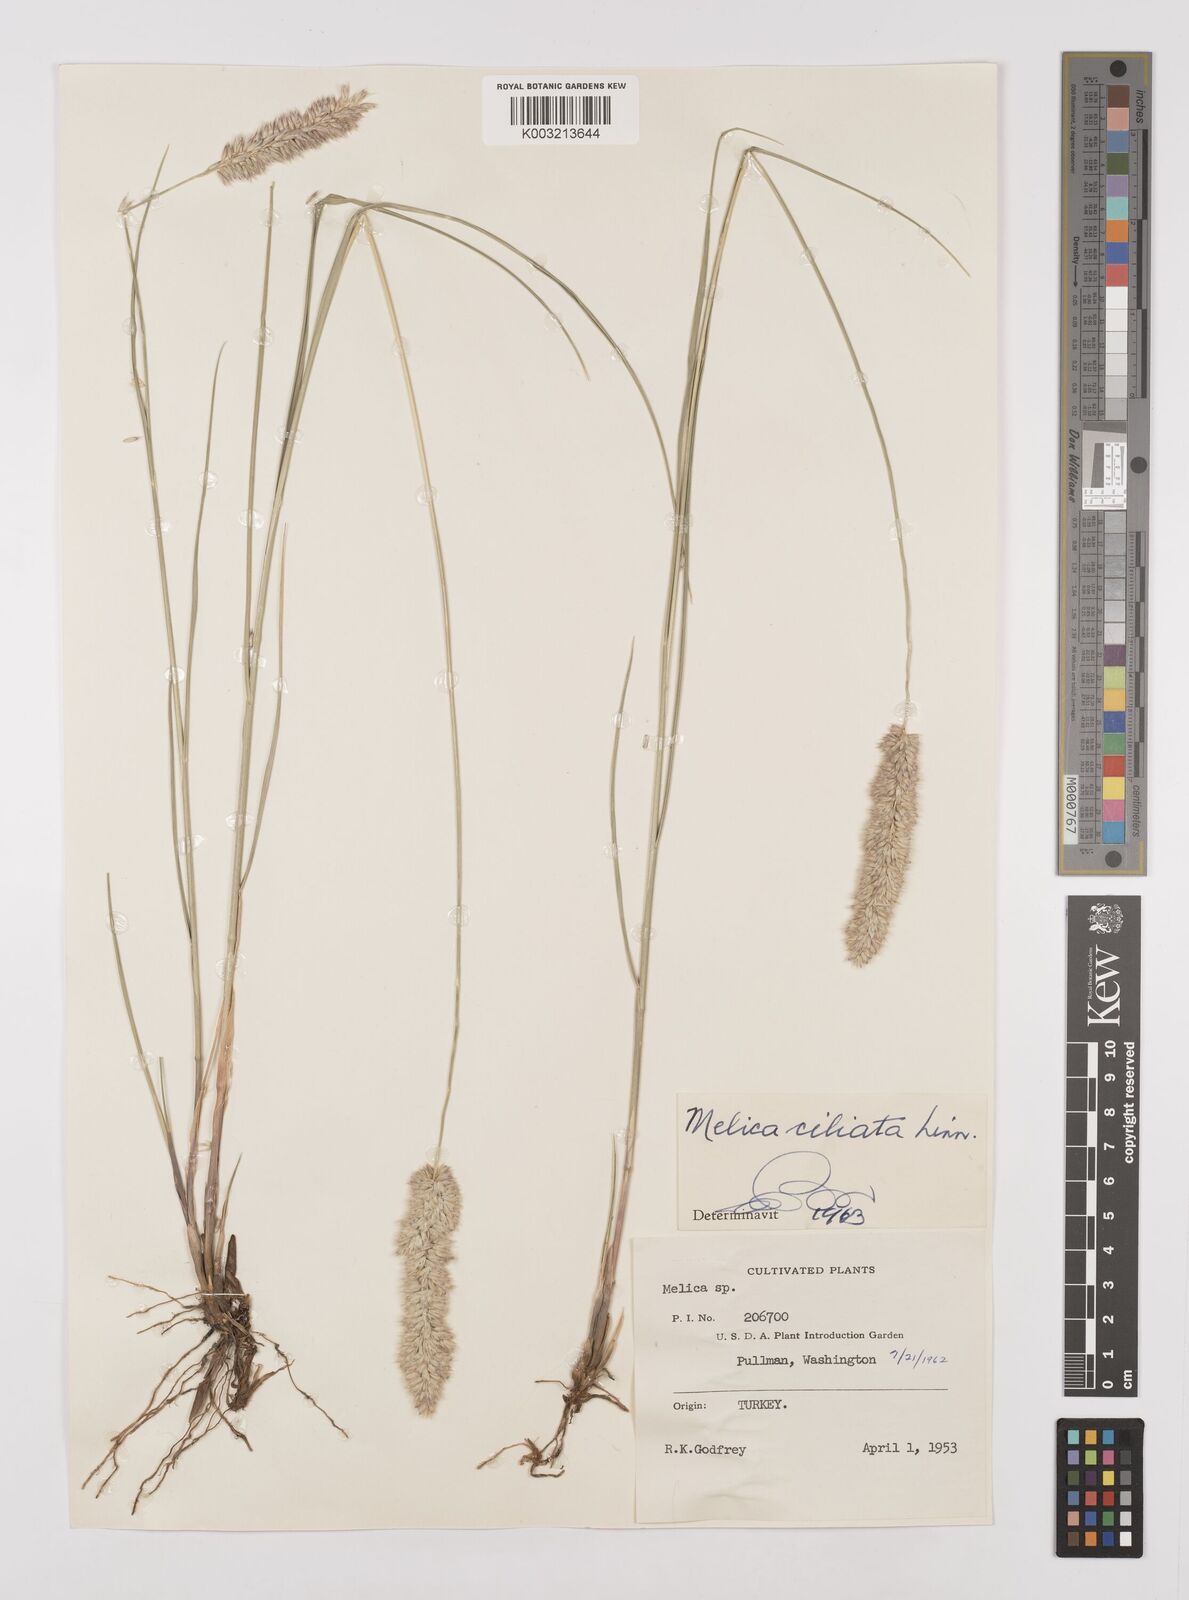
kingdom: Plantae
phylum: Tracheophyta
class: Liliopsida
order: Poales
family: Poaceae
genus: Melica
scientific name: Melica ciliata
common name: Hairy melicgrass
